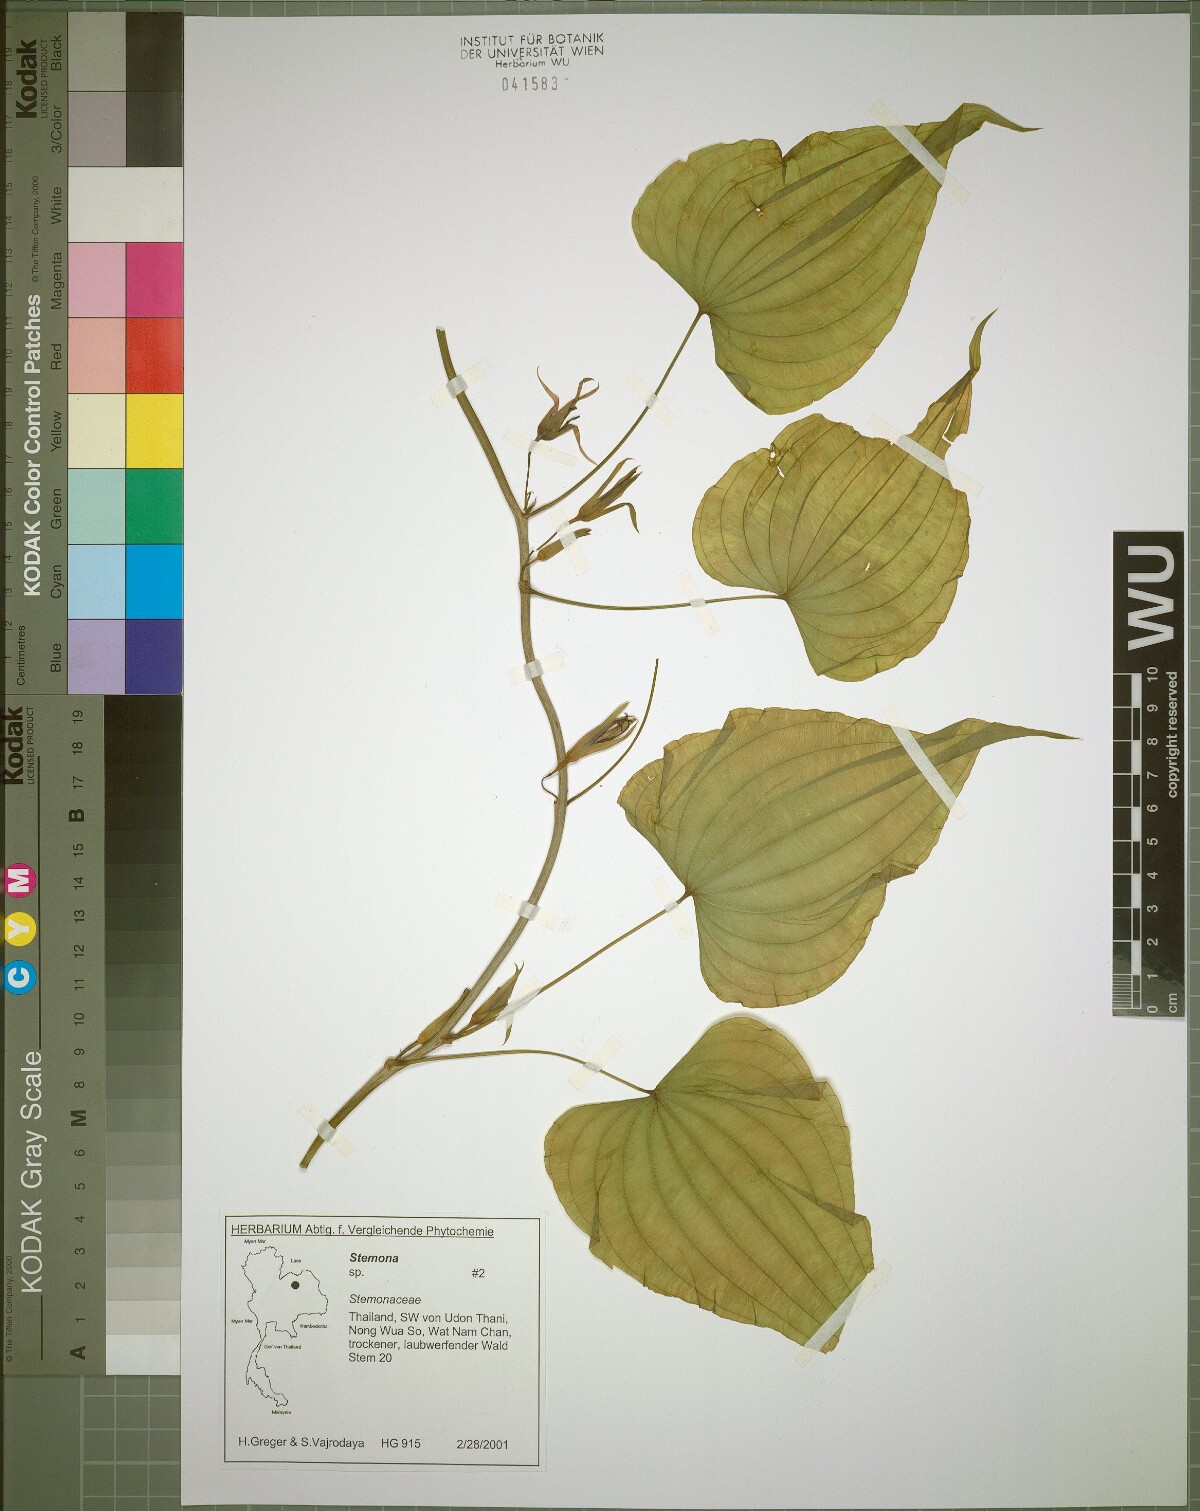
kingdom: Plantae
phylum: Tracheophyta
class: Liliopsida
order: Pandanales
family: Stemonaceae
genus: Stemona
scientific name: Stemona aphylla
